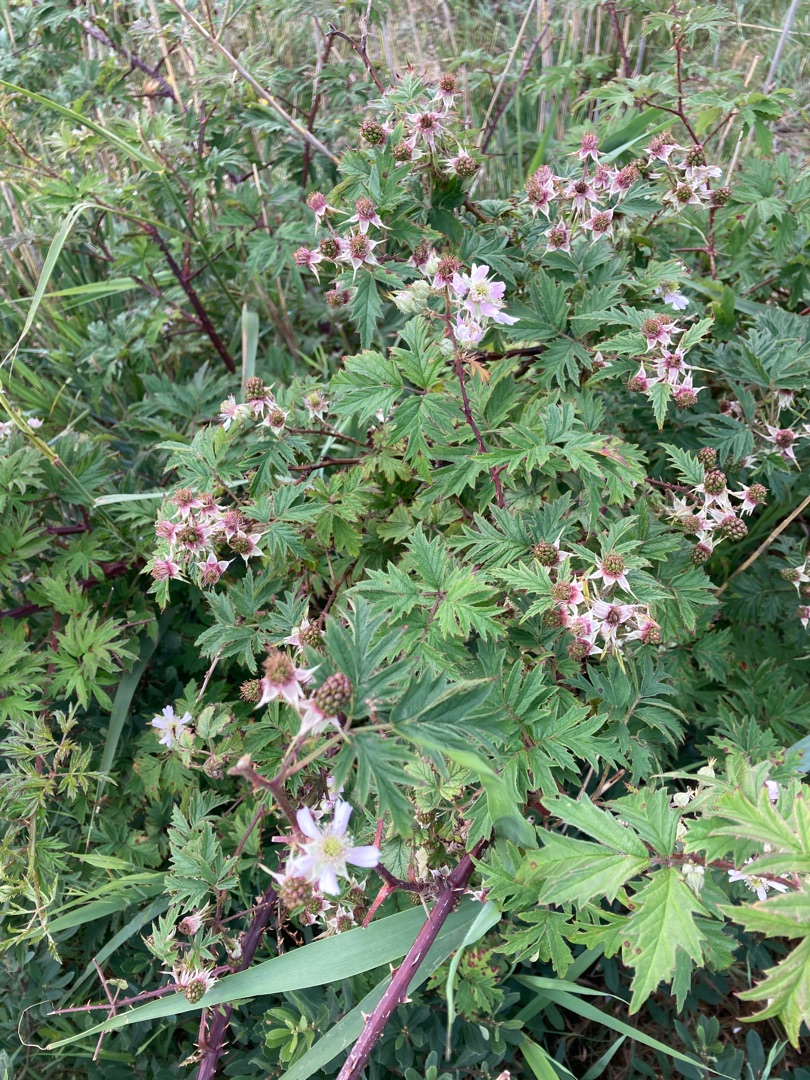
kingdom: Plantae
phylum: Tracheophyta
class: Magnoliopsida
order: Rosales
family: Rosaceae
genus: Rubus
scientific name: Rubus laciniatus
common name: Fliget brombær
